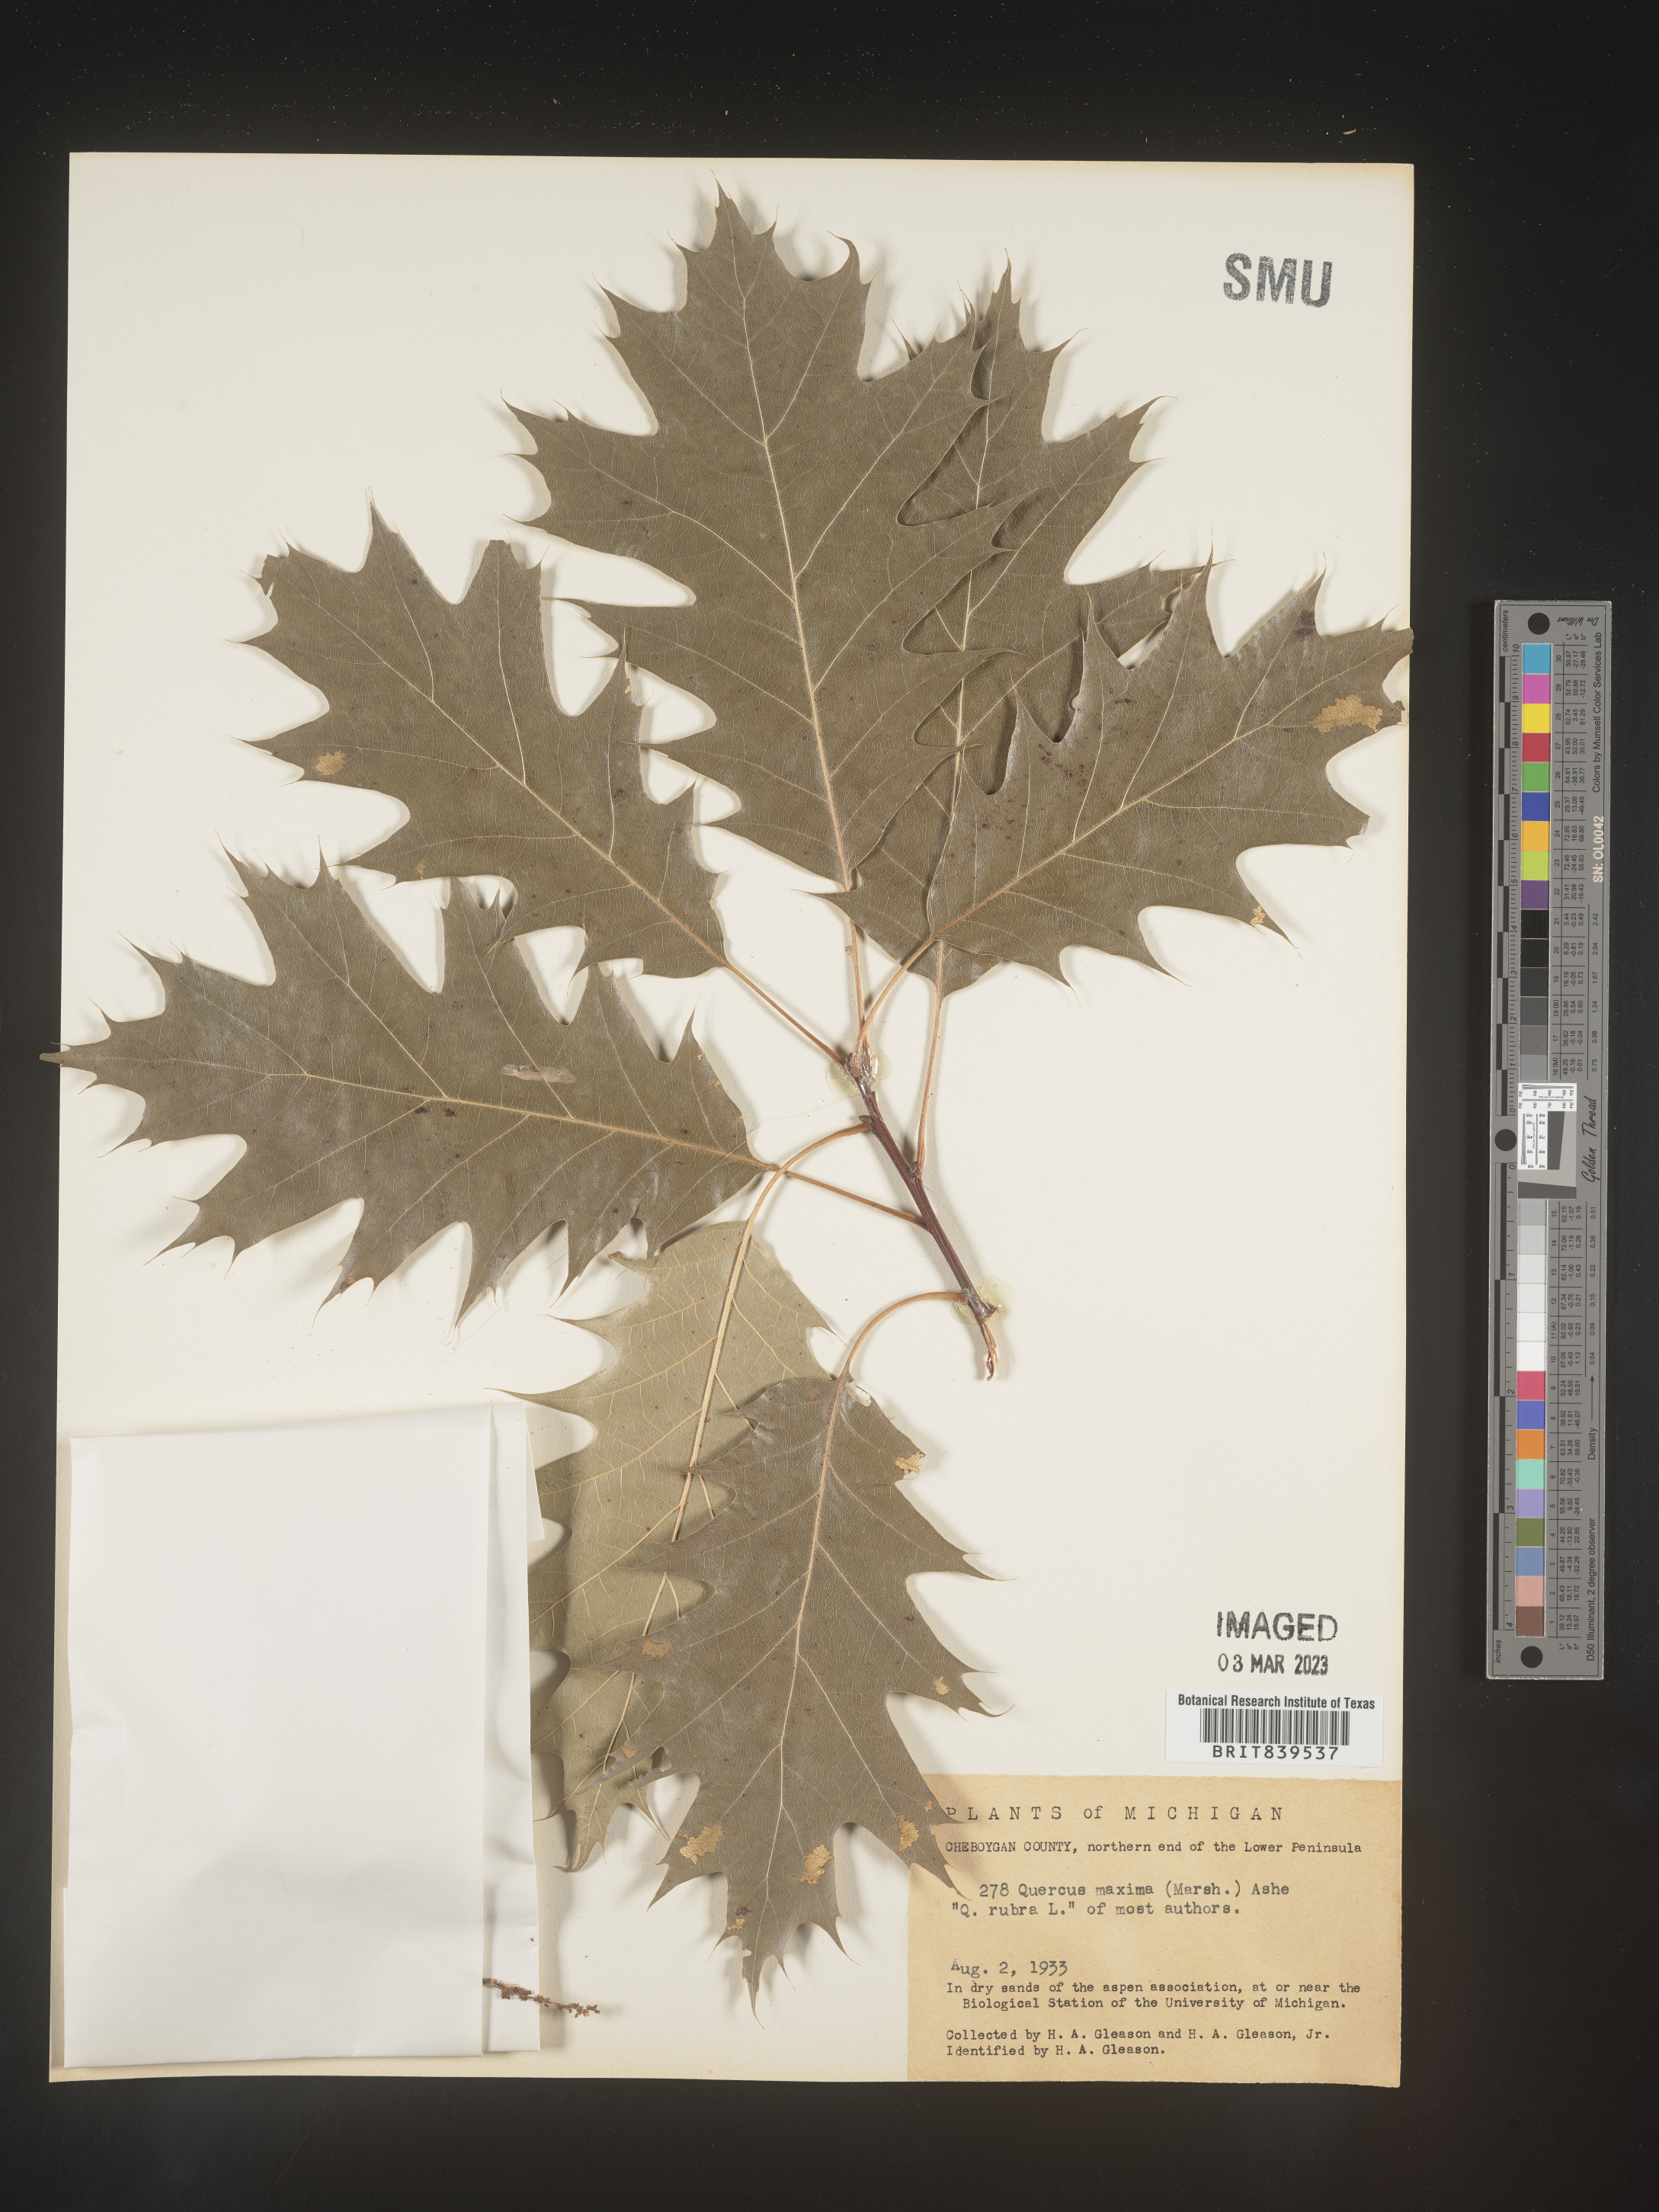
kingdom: Plantae
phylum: Tracheophyta
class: Magnoliopsida
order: Fagales
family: Fagaceae
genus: Quercus
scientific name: Quercus rubra
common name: Red oak
